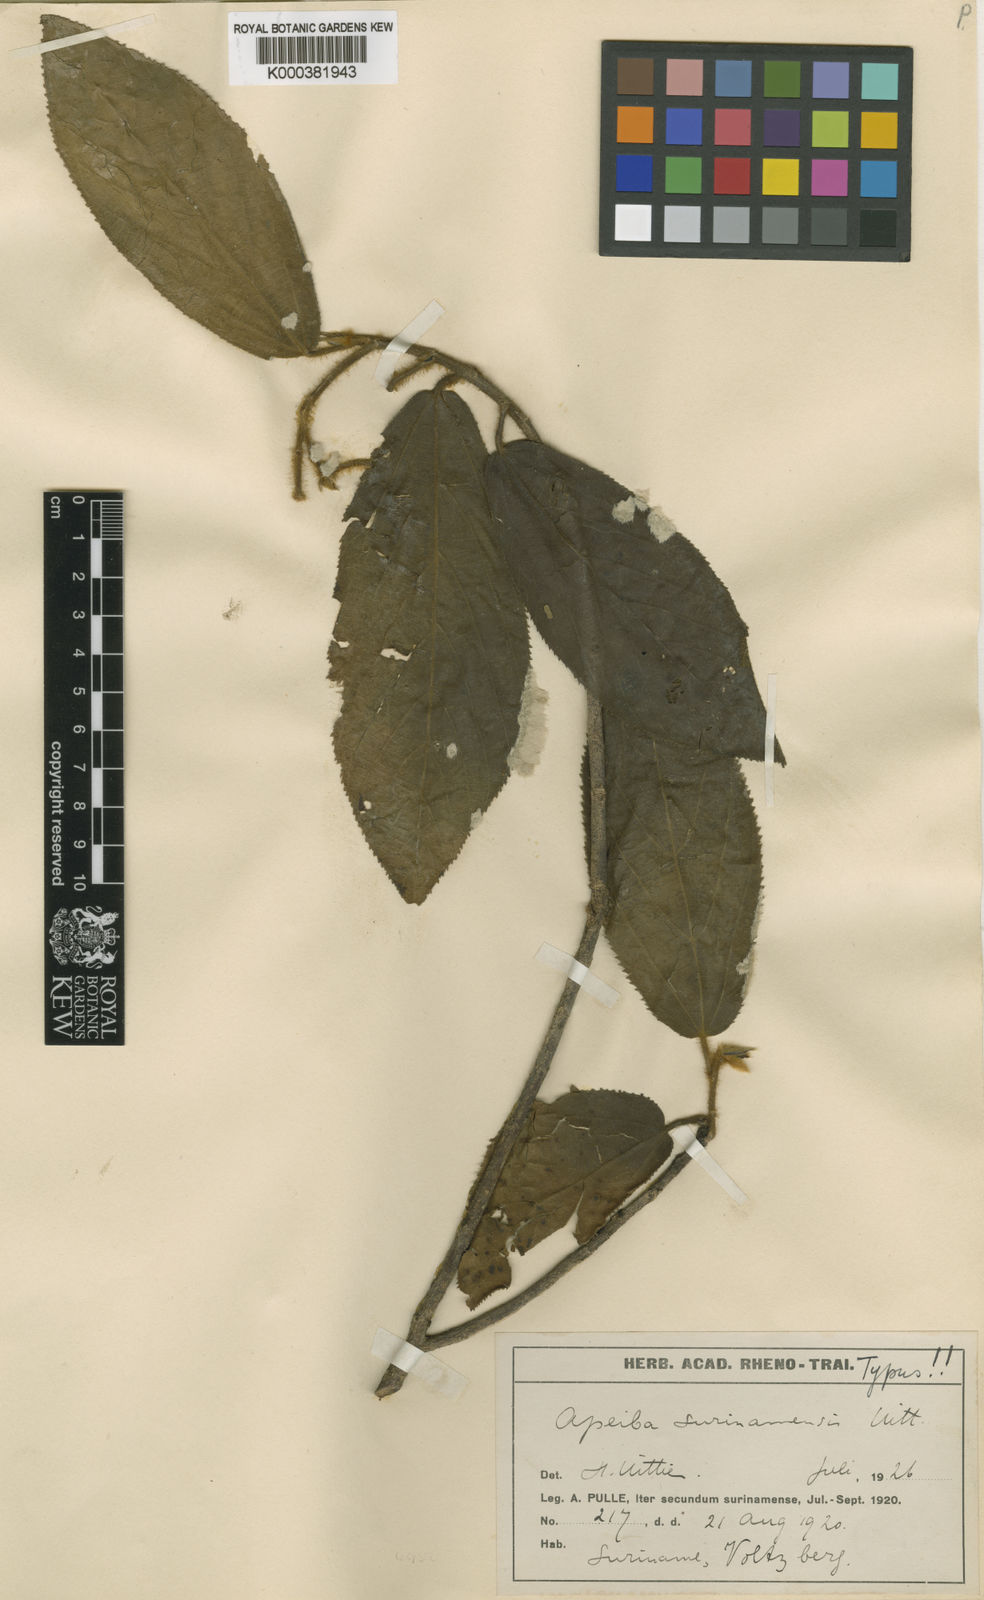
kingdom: Plantae
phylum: Tracheophyta
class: Magnoliopsida
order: Malvales
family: Malvaceae
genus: Apeiba
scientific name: Apeiba schomburgkii
